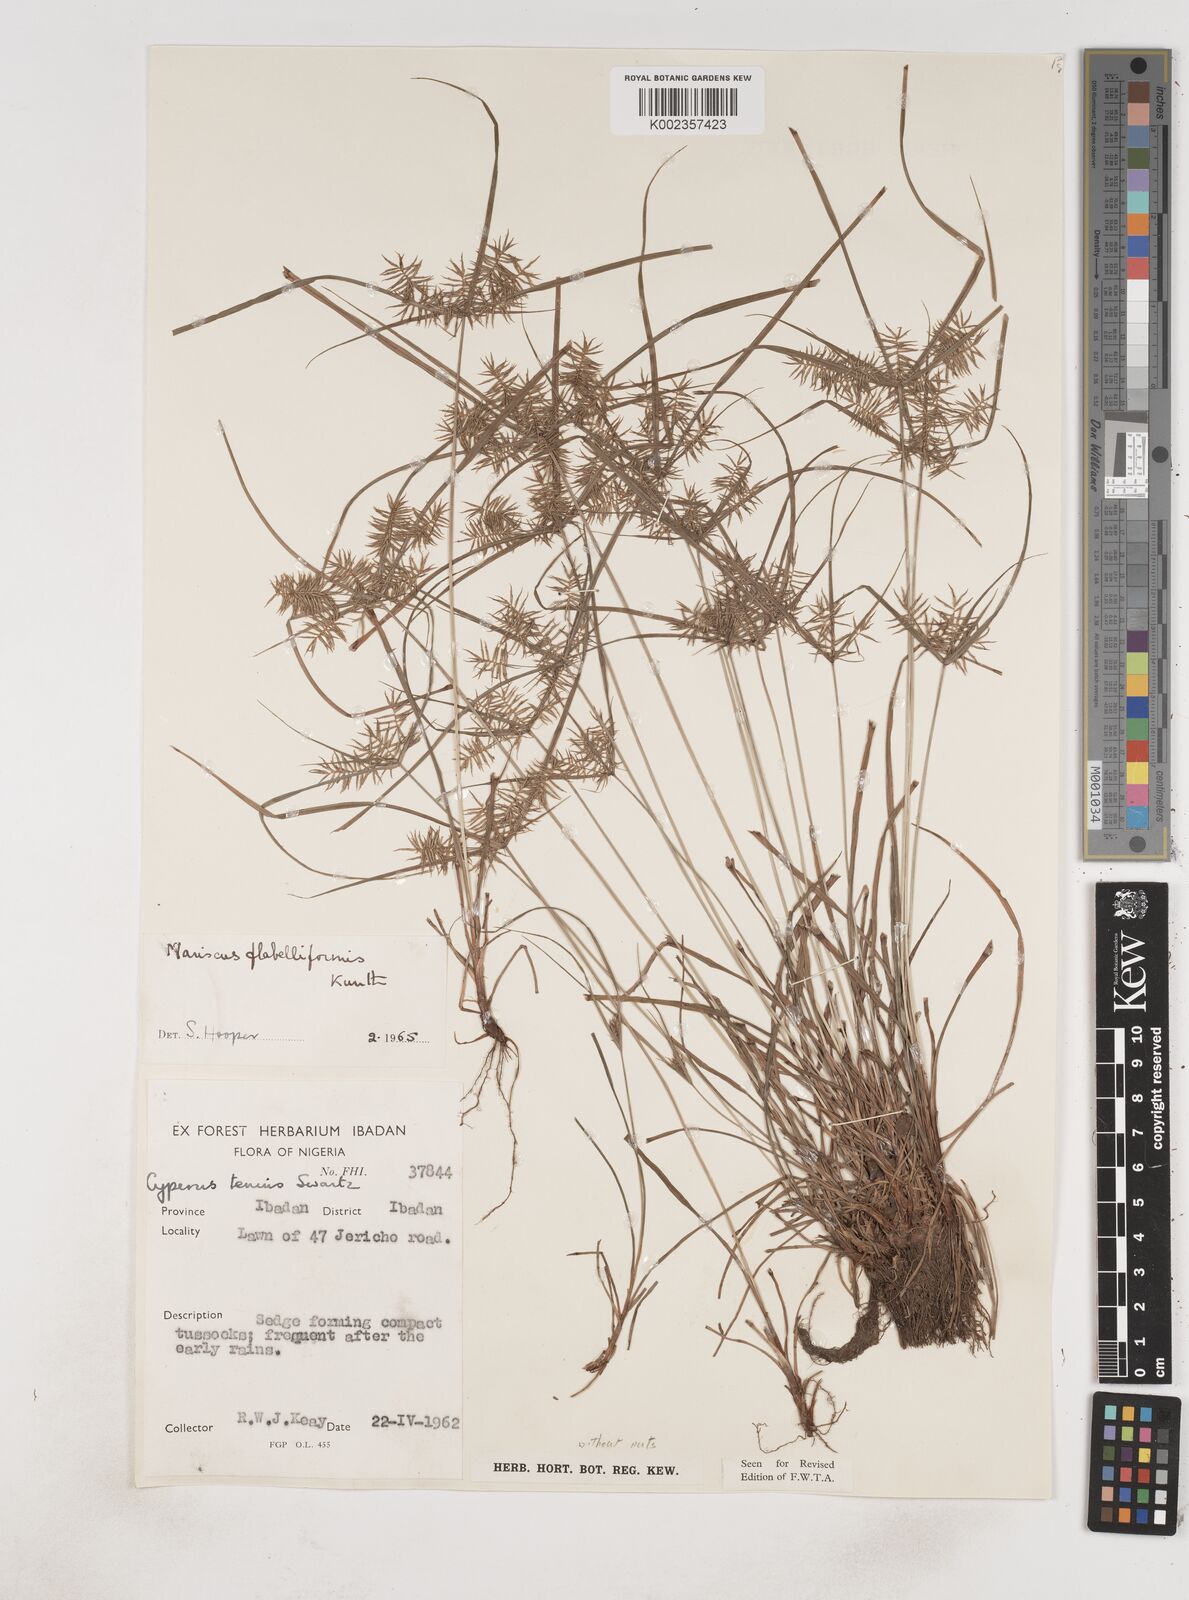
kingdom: Plantae
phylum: Tracheophyta
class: Liliopsida
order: Poales
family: Cyperaceae
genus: Cyperus
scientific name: Cyperus tenuis
